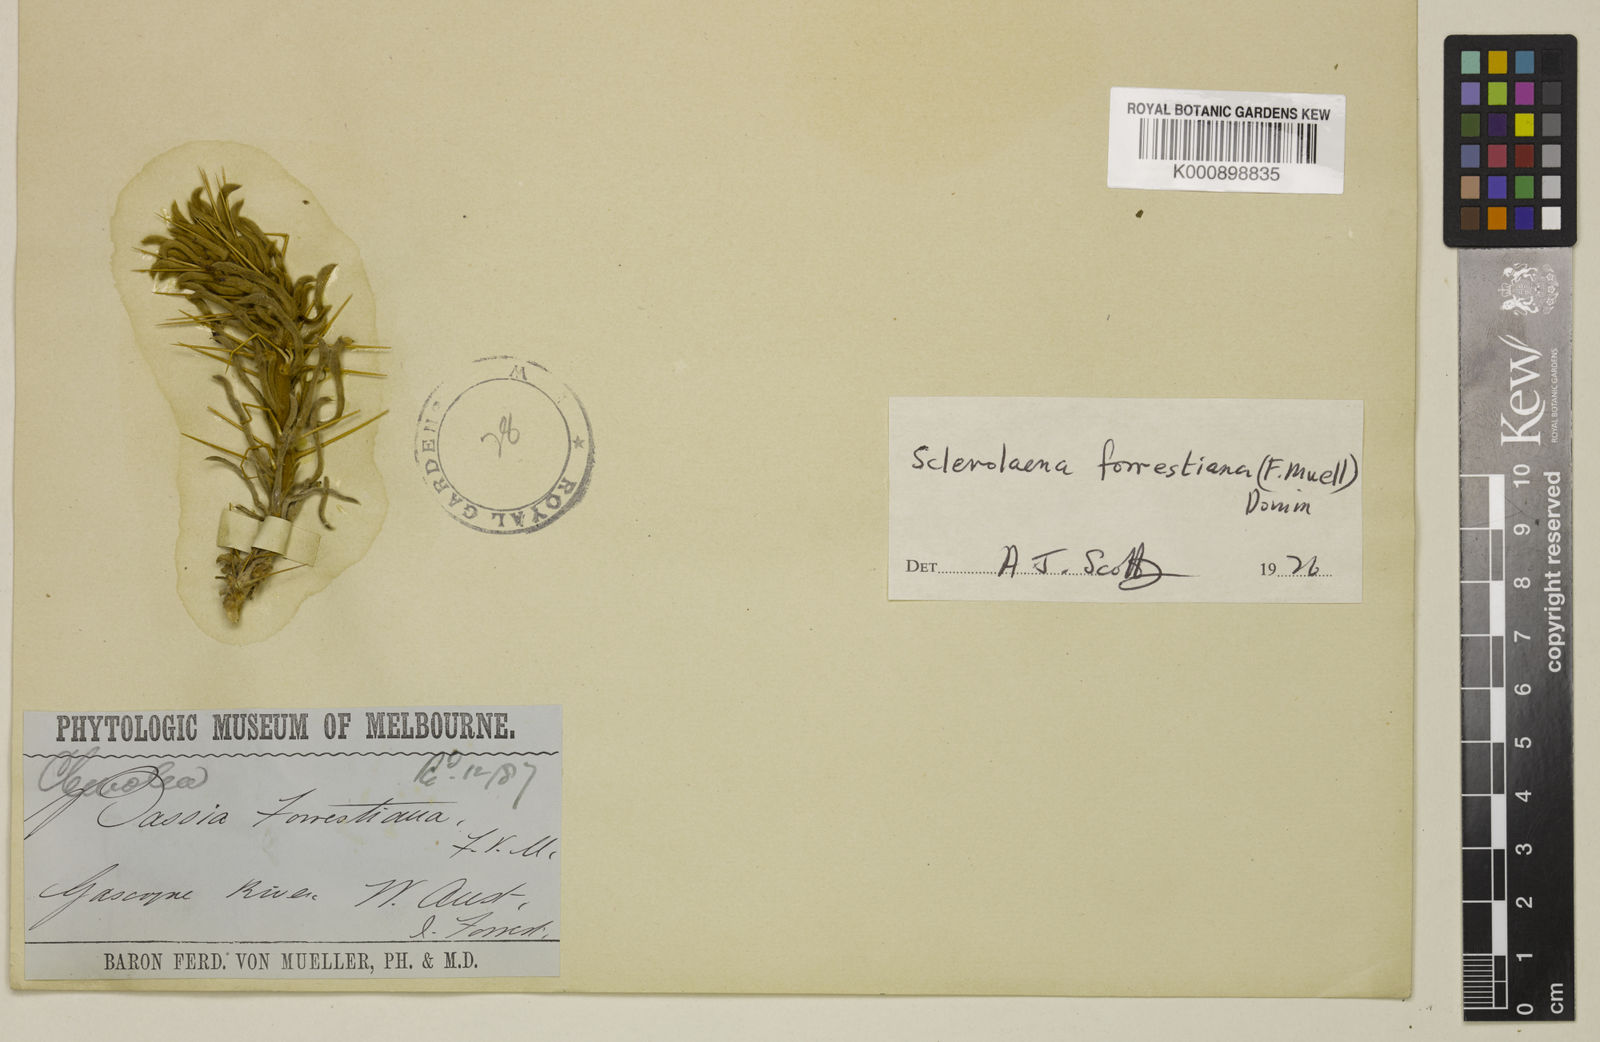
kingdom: Plantae
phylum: Tracheophyta
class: Magnoliopsida
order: Caryophyllales
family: Amaranthaceae
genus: Sclerolaena
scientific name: Sclerolaena forrestiana
